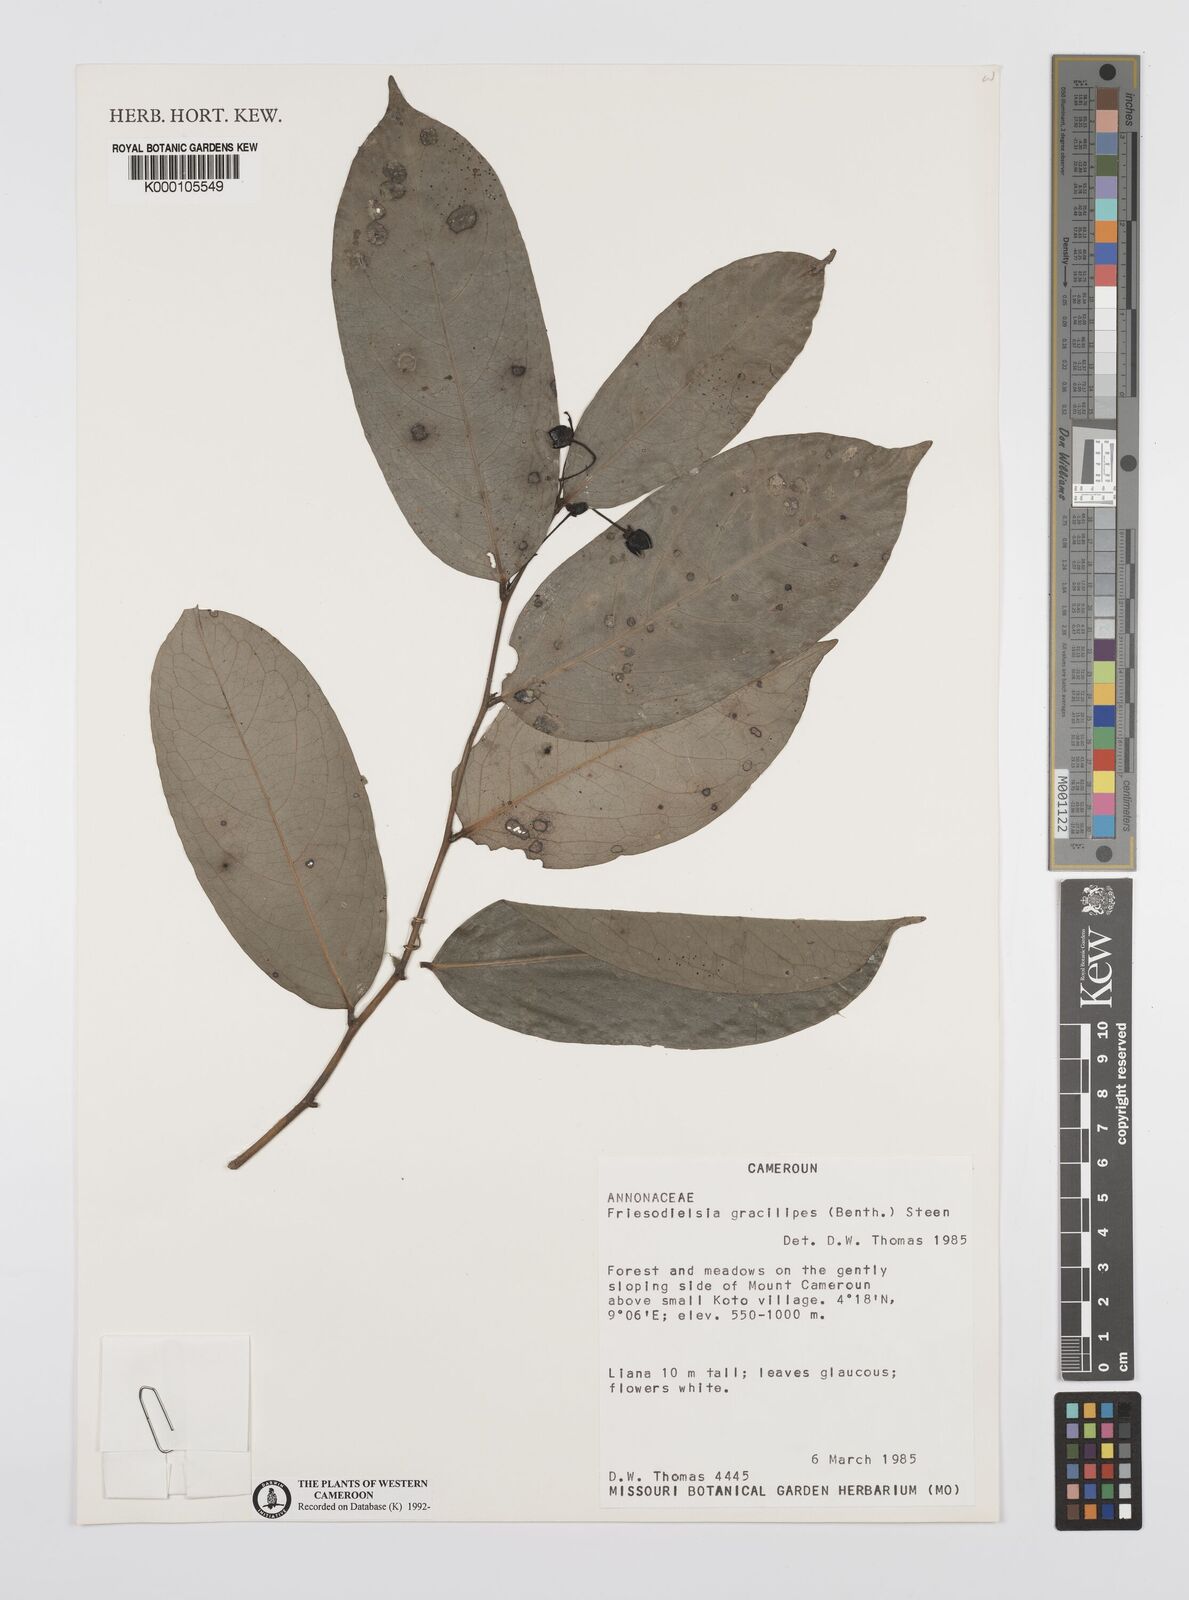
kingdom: Plantae
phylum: Tracheophyta
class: Magnoliopsida
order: Magnoliales
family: Annonaceae
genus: Friesodielsia
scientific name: Friesodielsia gracilipes
